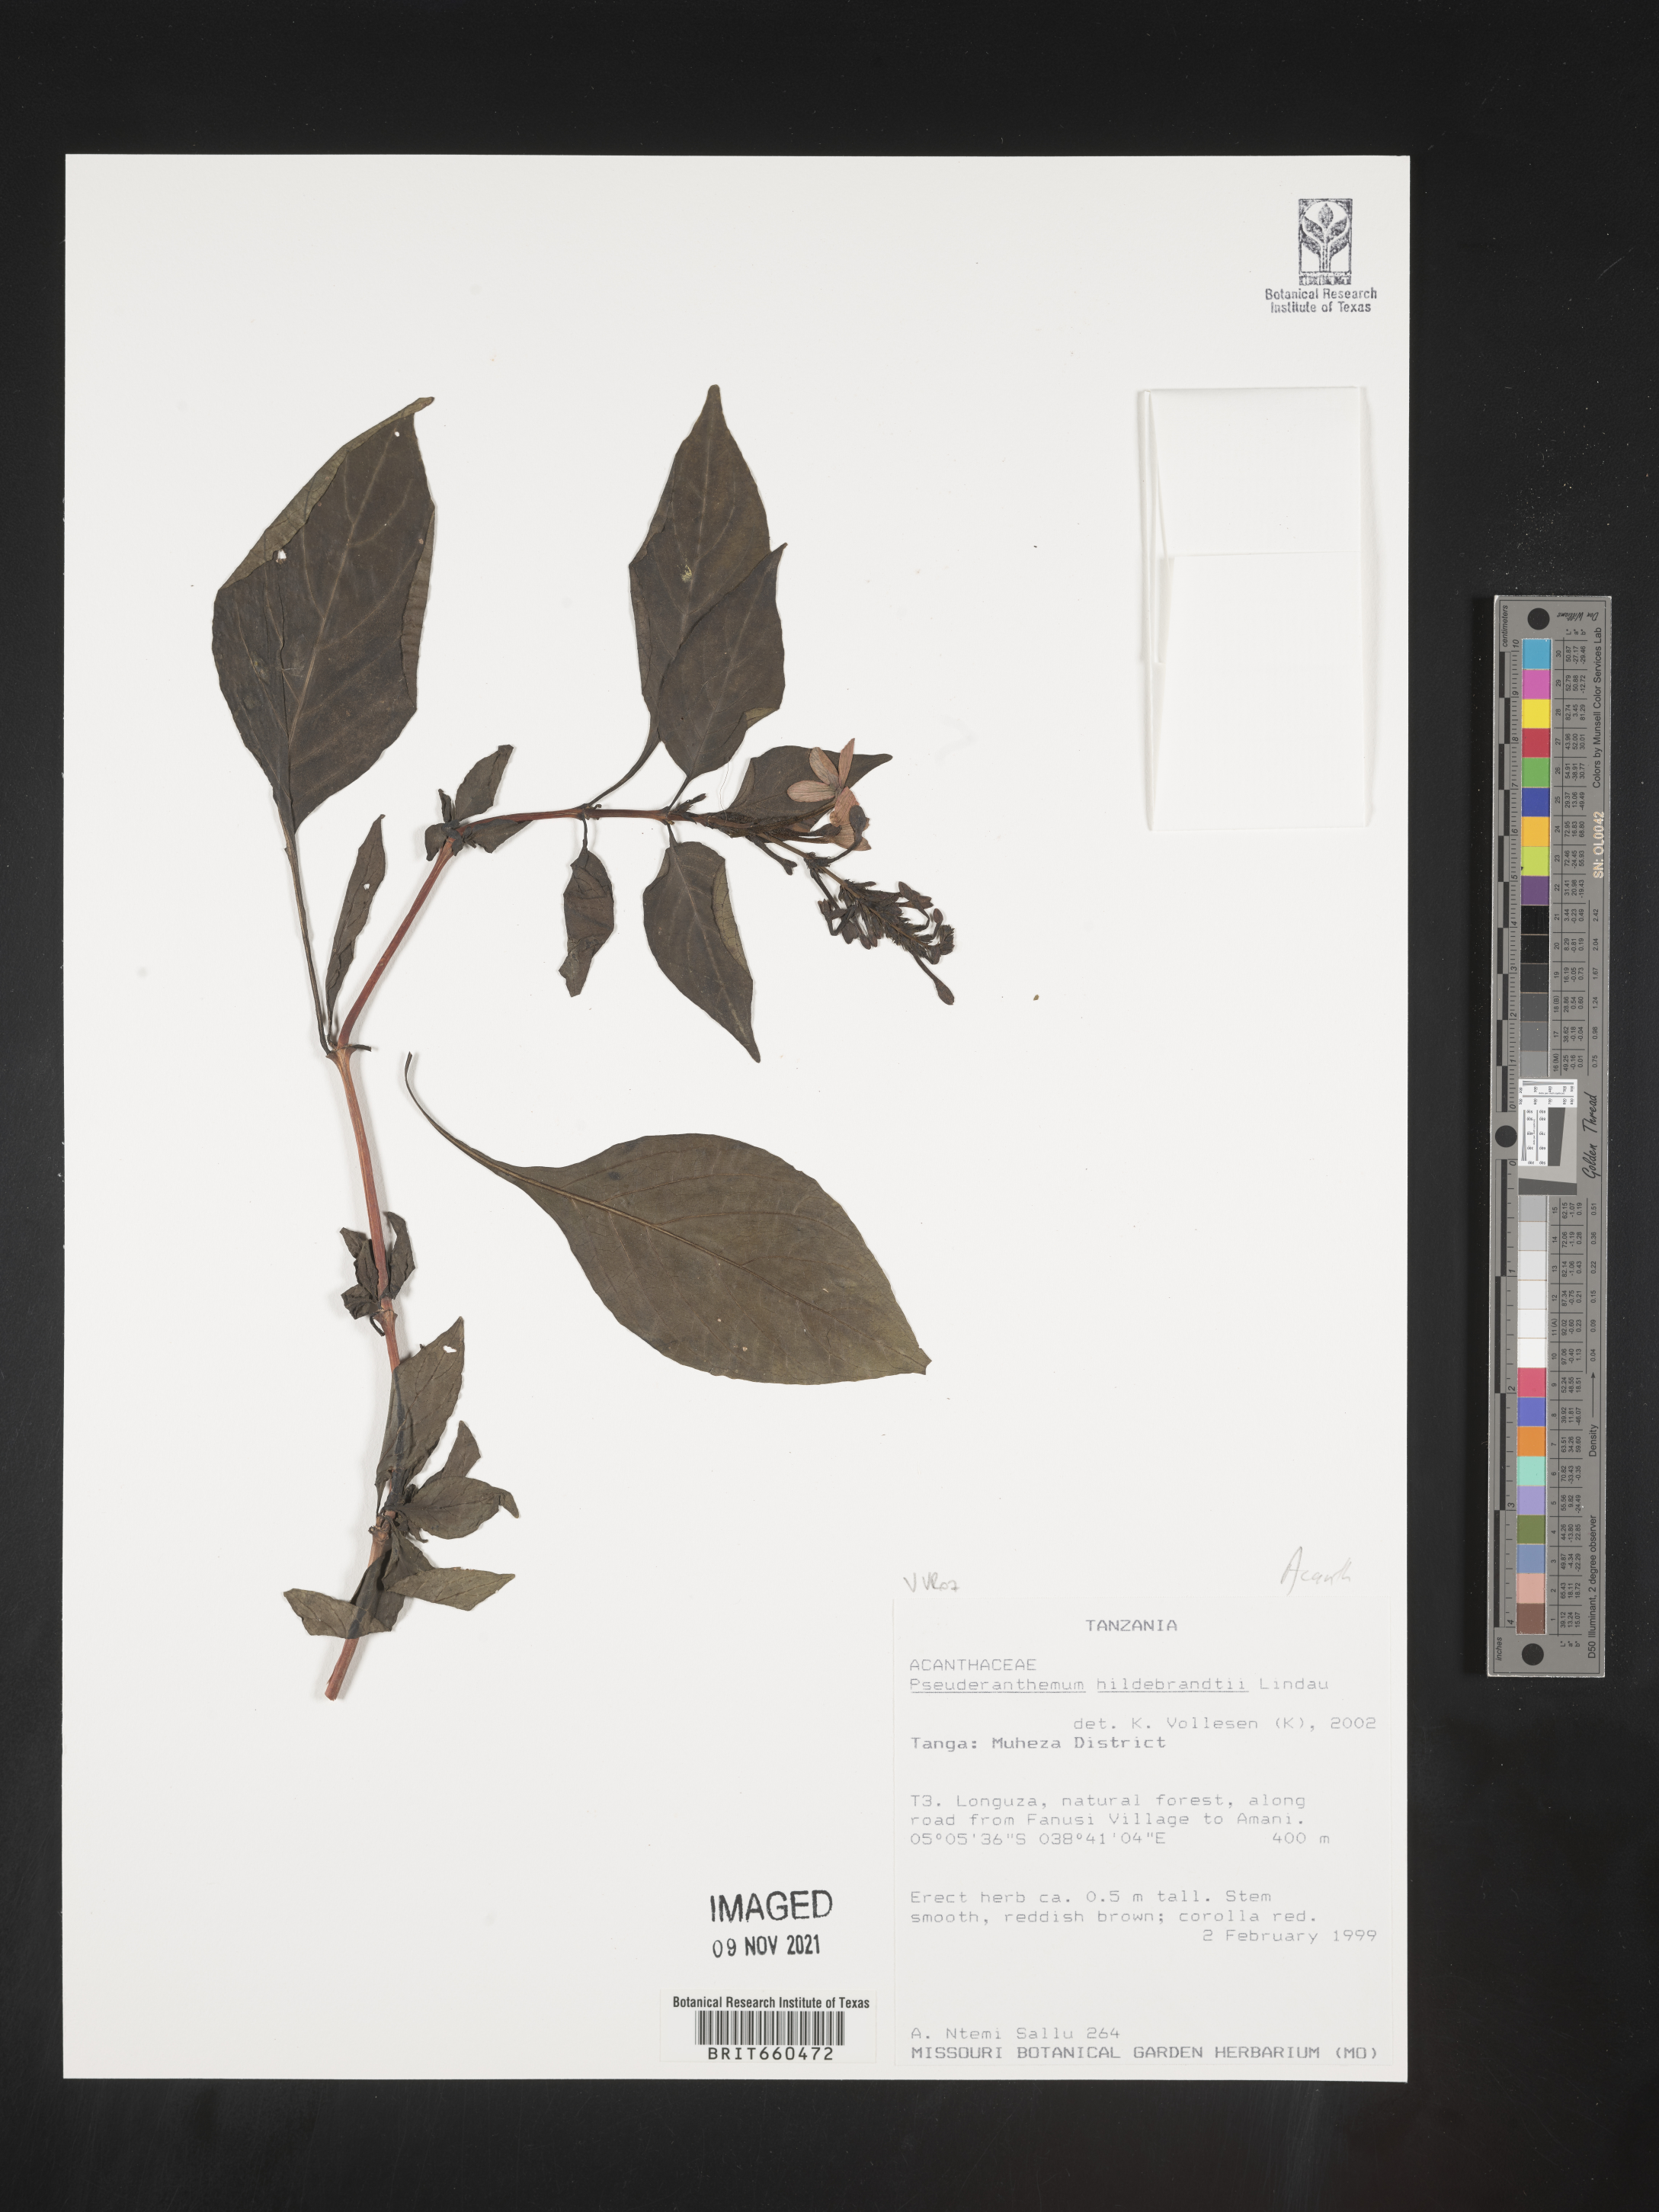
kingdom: Plantae
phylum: Tracheophyta
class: Magnoliopsida
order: Lamiales
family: Acanthaceae
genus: Pseuderanthemum
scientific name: Pseuderanthemum
